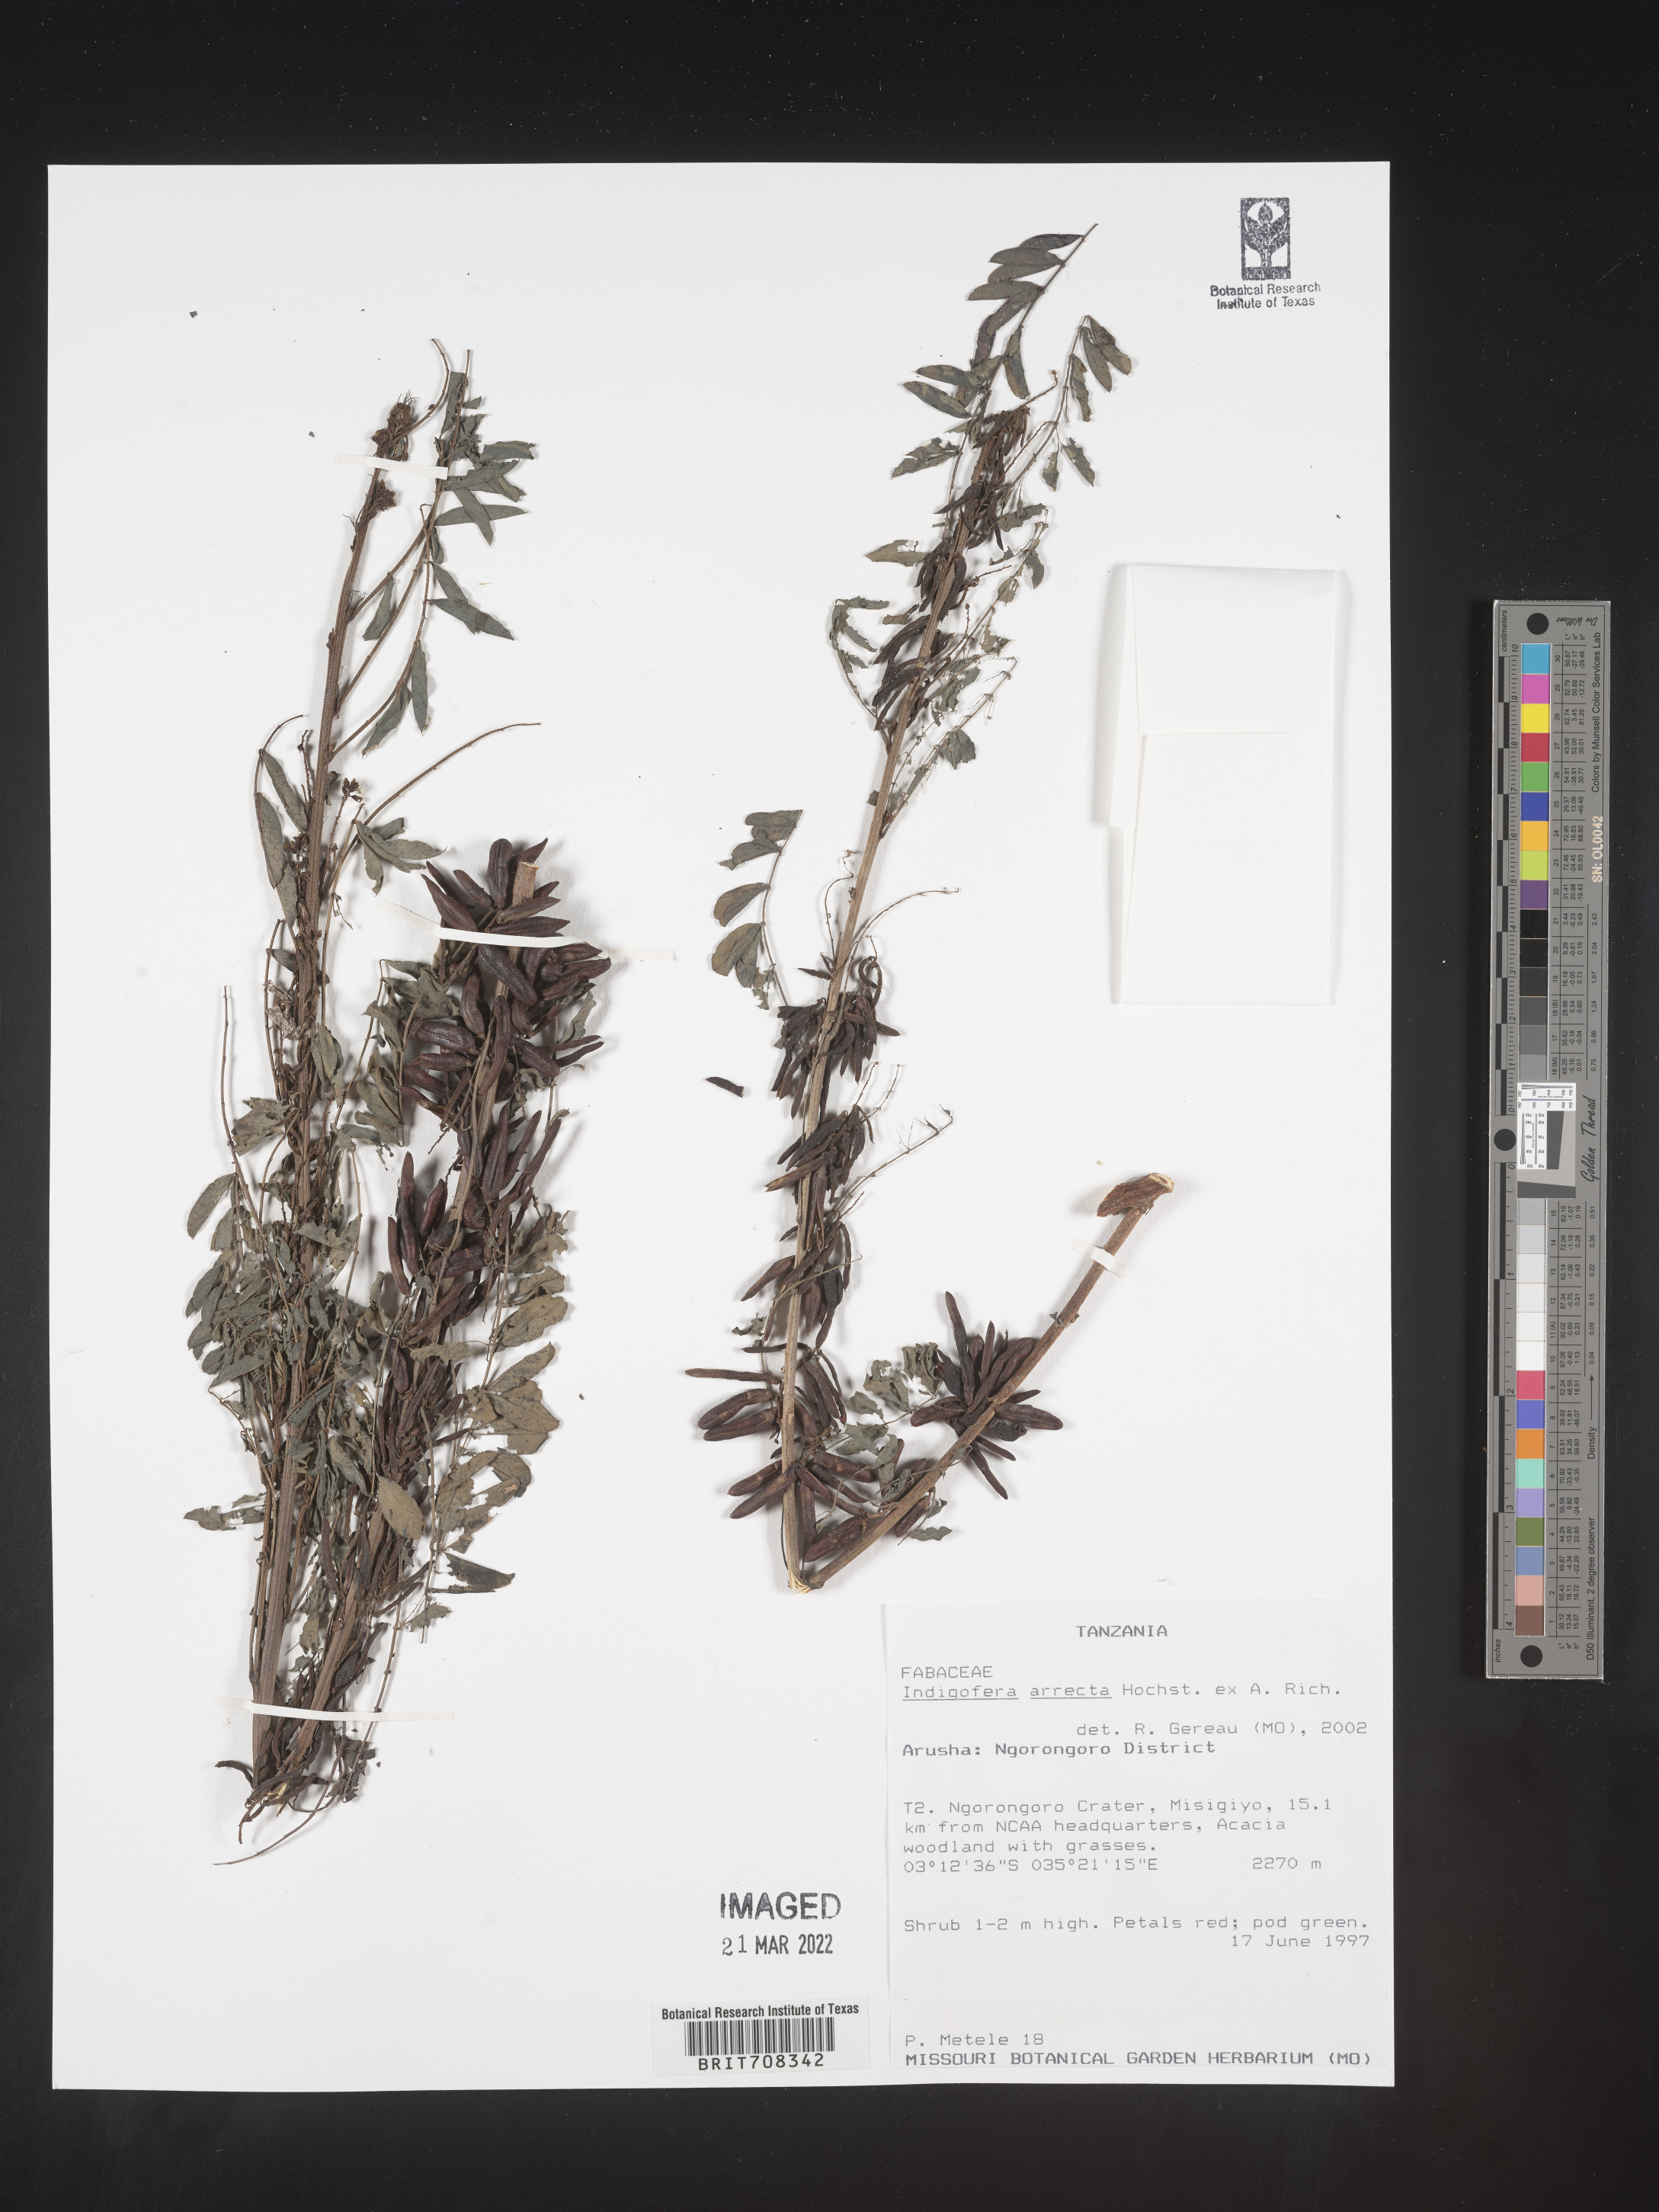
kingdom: Plantae
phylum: Tracheophyta
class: Magnoliopsida
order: Fabales
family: Fabaceae
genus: Indigofera
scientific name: Indigofera
